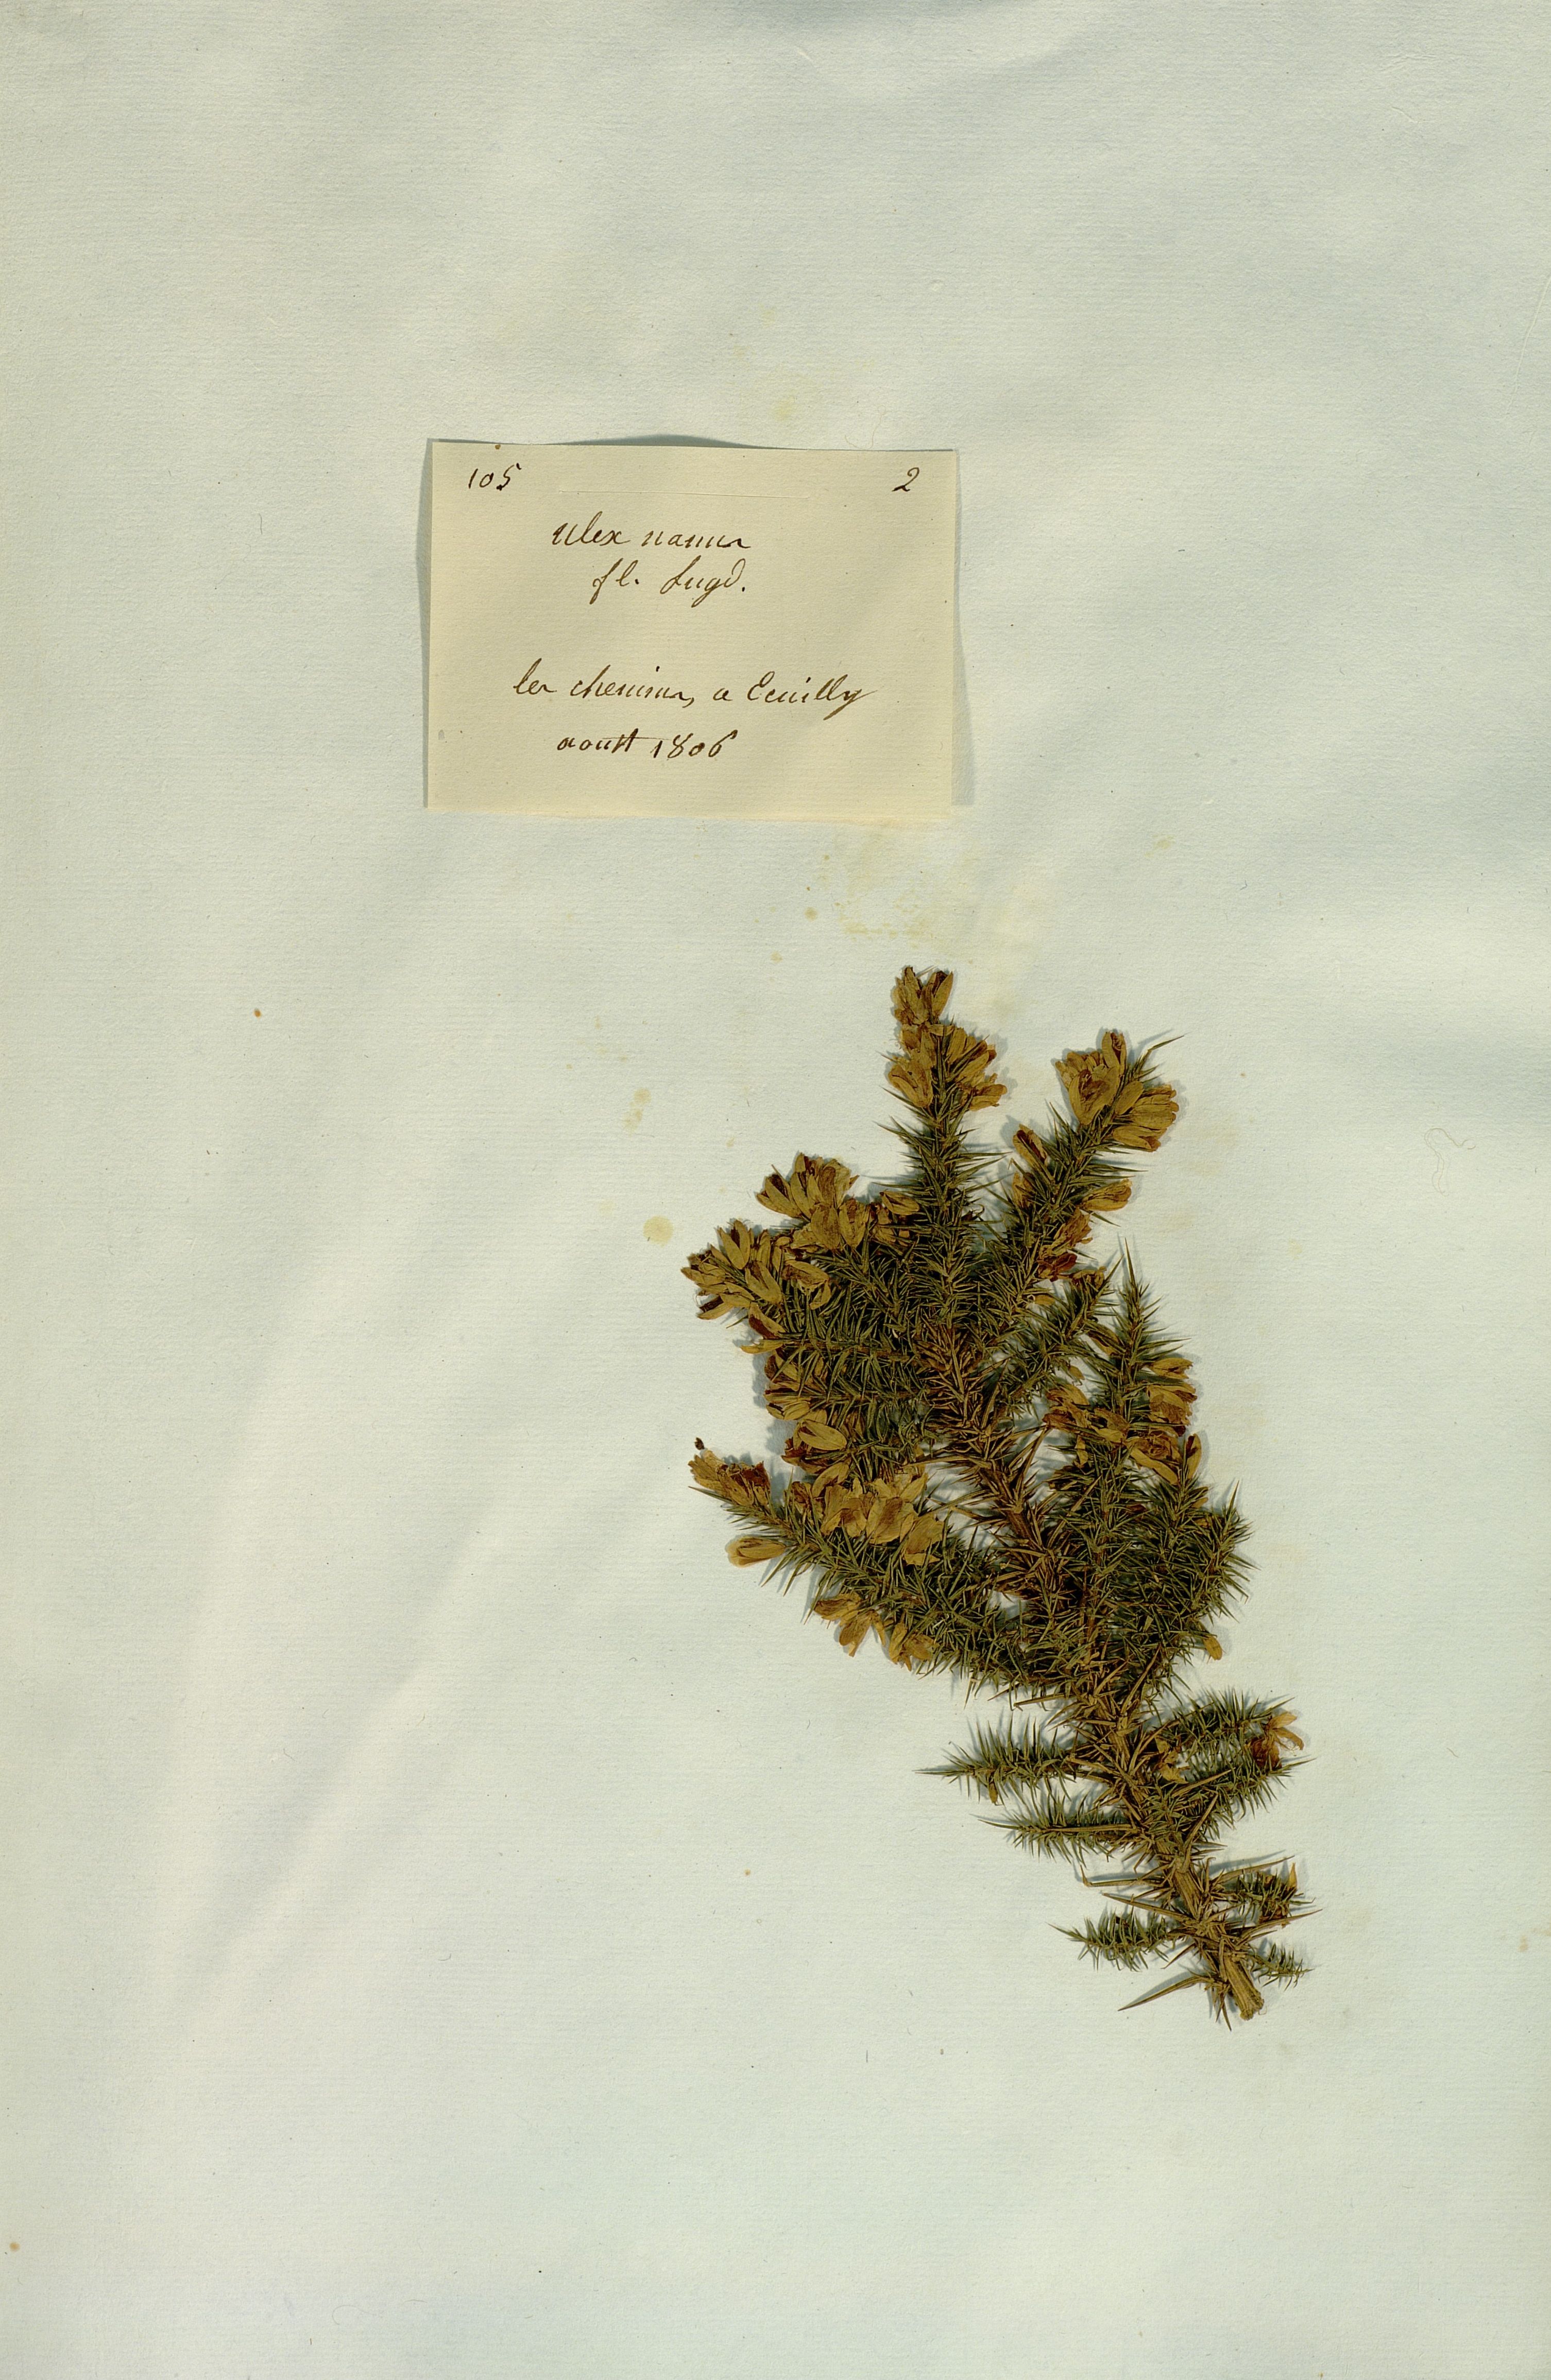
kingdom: Plantae
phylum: Tracheophyta
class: Magnoliopsida
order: Fabales
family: Fabaceae
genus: Ulex
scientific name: Ulex nanus
